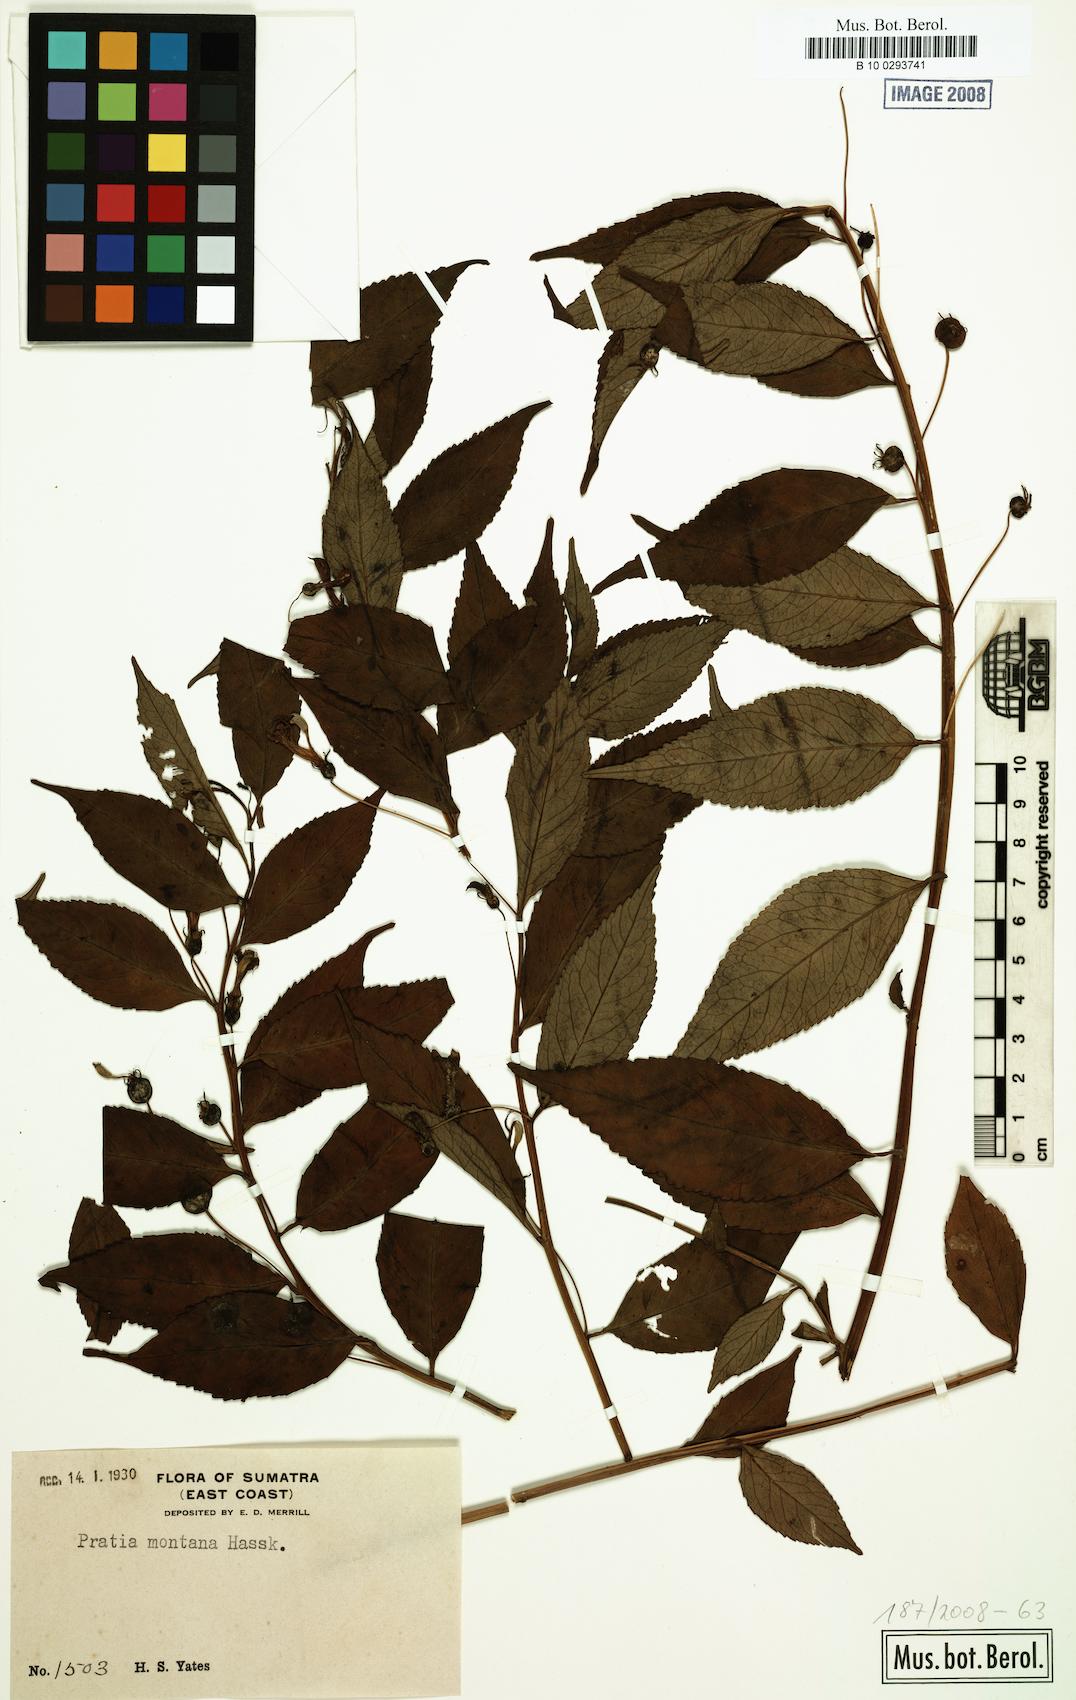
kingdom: Plantae
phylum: Tracheophyta
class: Magnoliopsida
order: Asterales
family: Campanulaceae
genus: Lobelia
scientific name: Lobelia montana
